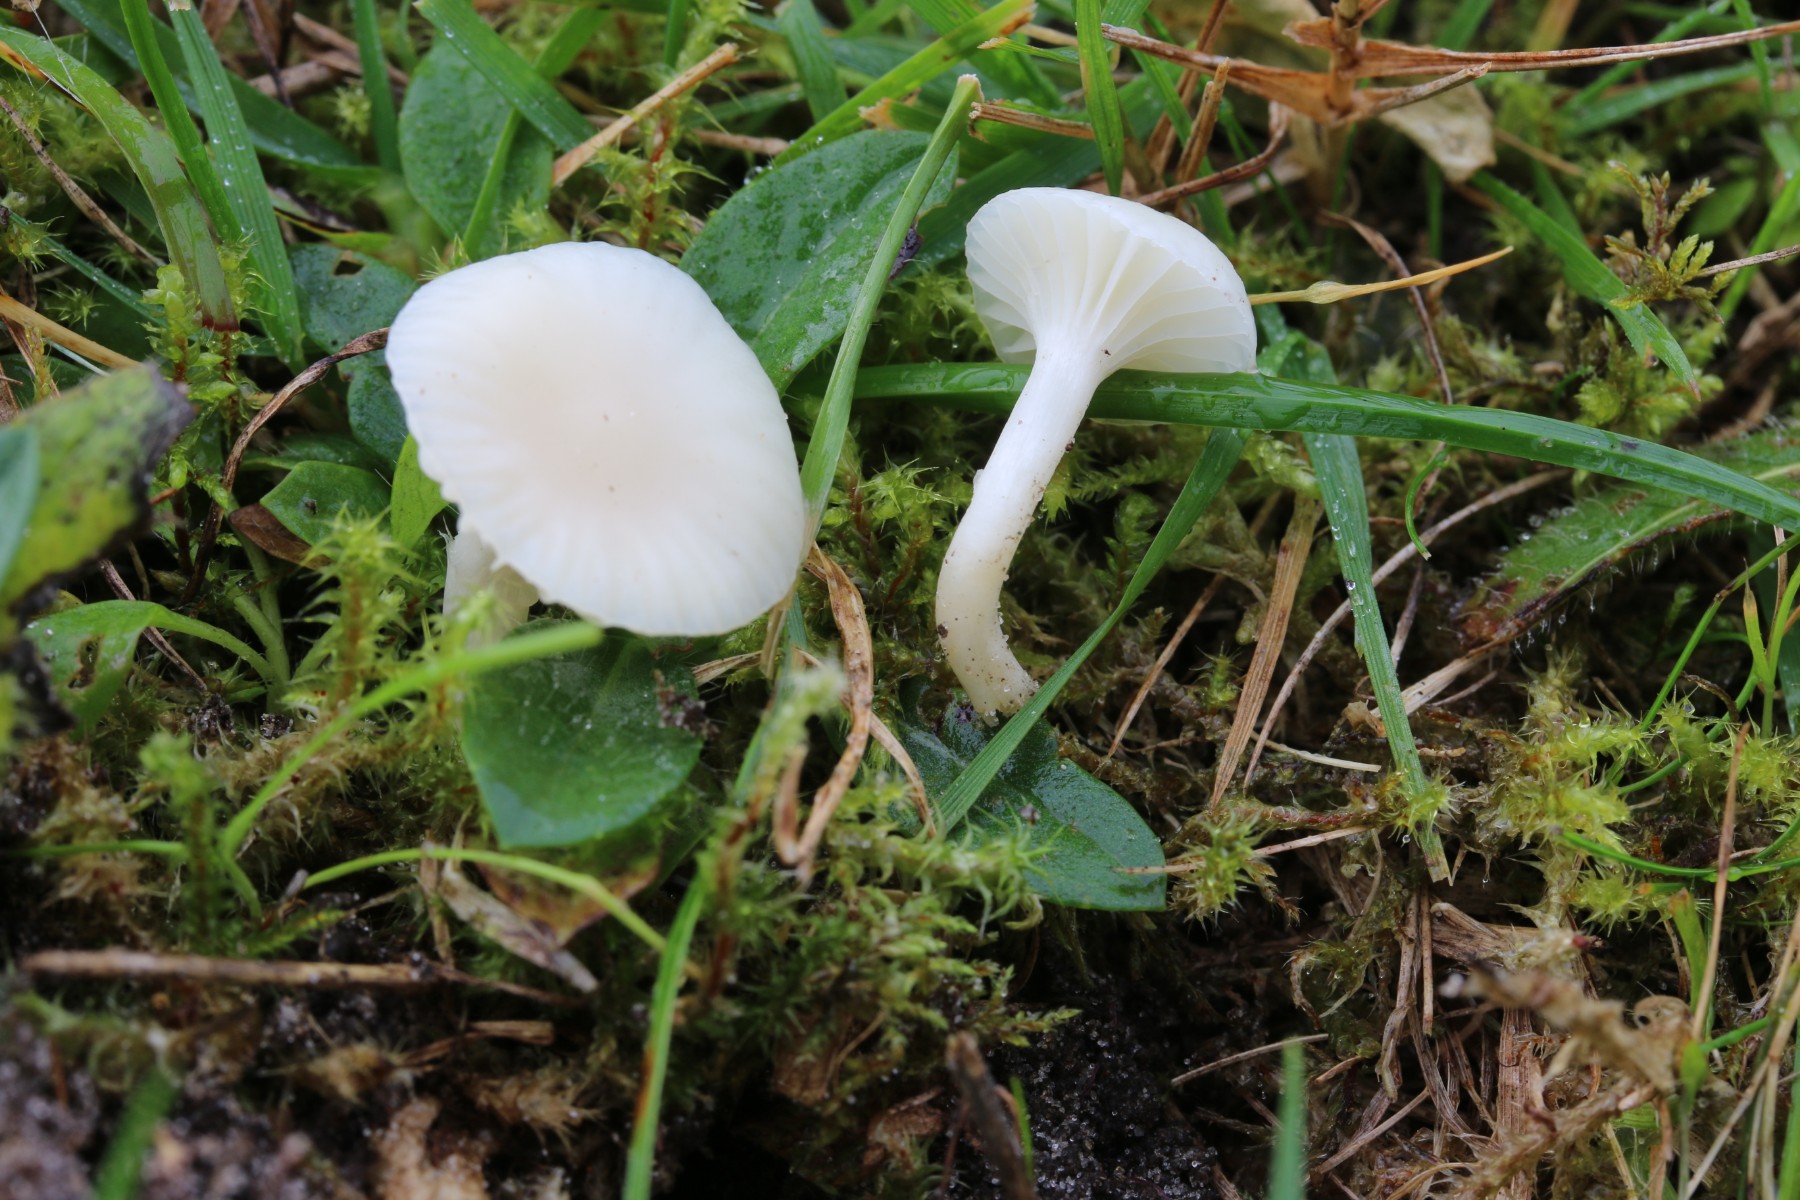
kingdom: Fungi
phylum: Basidiomycota
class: Agaricomycetes
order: Agaricales
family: Hygrophoraceae
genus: Cuphophyllus
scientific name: Cuphophyllus virgineus
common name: snehvid vokshat
